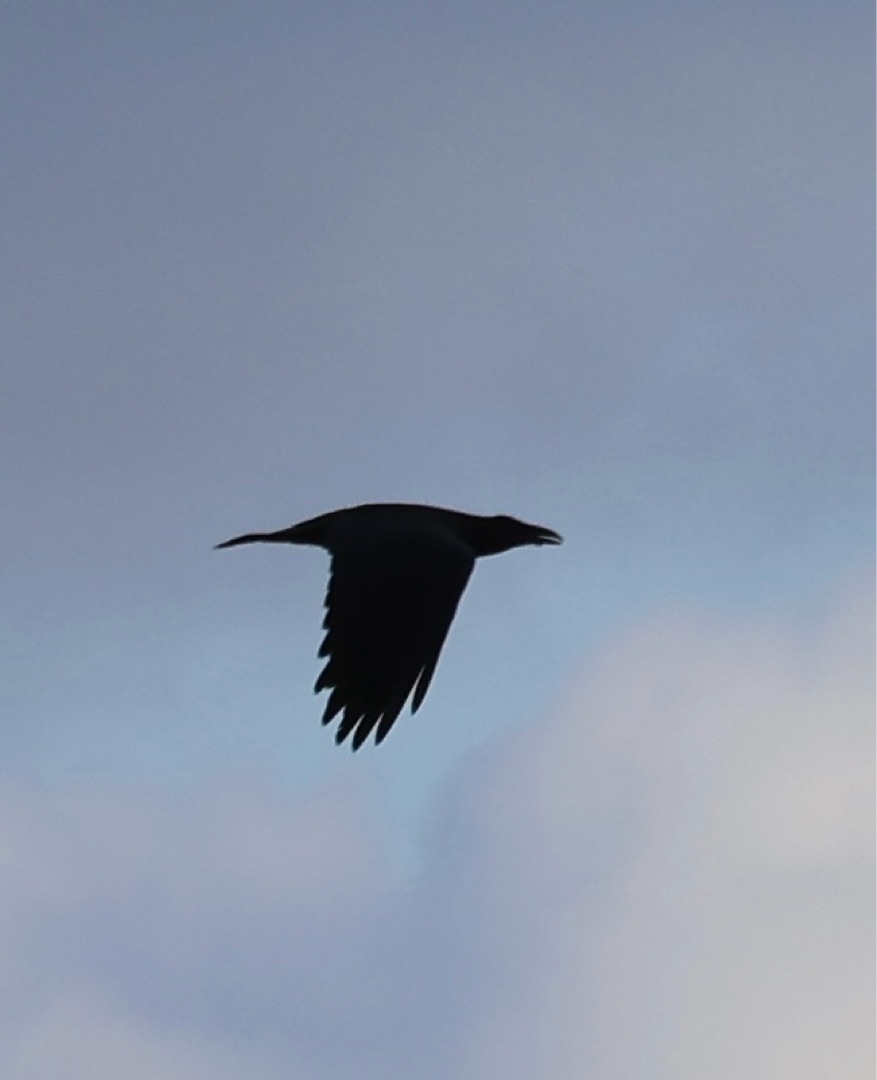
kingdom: Animalia
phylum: Chordata
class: Aves
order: Passeriformes
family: Corvidae
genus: Corvus
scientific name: Corvus corax
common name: Ravn
